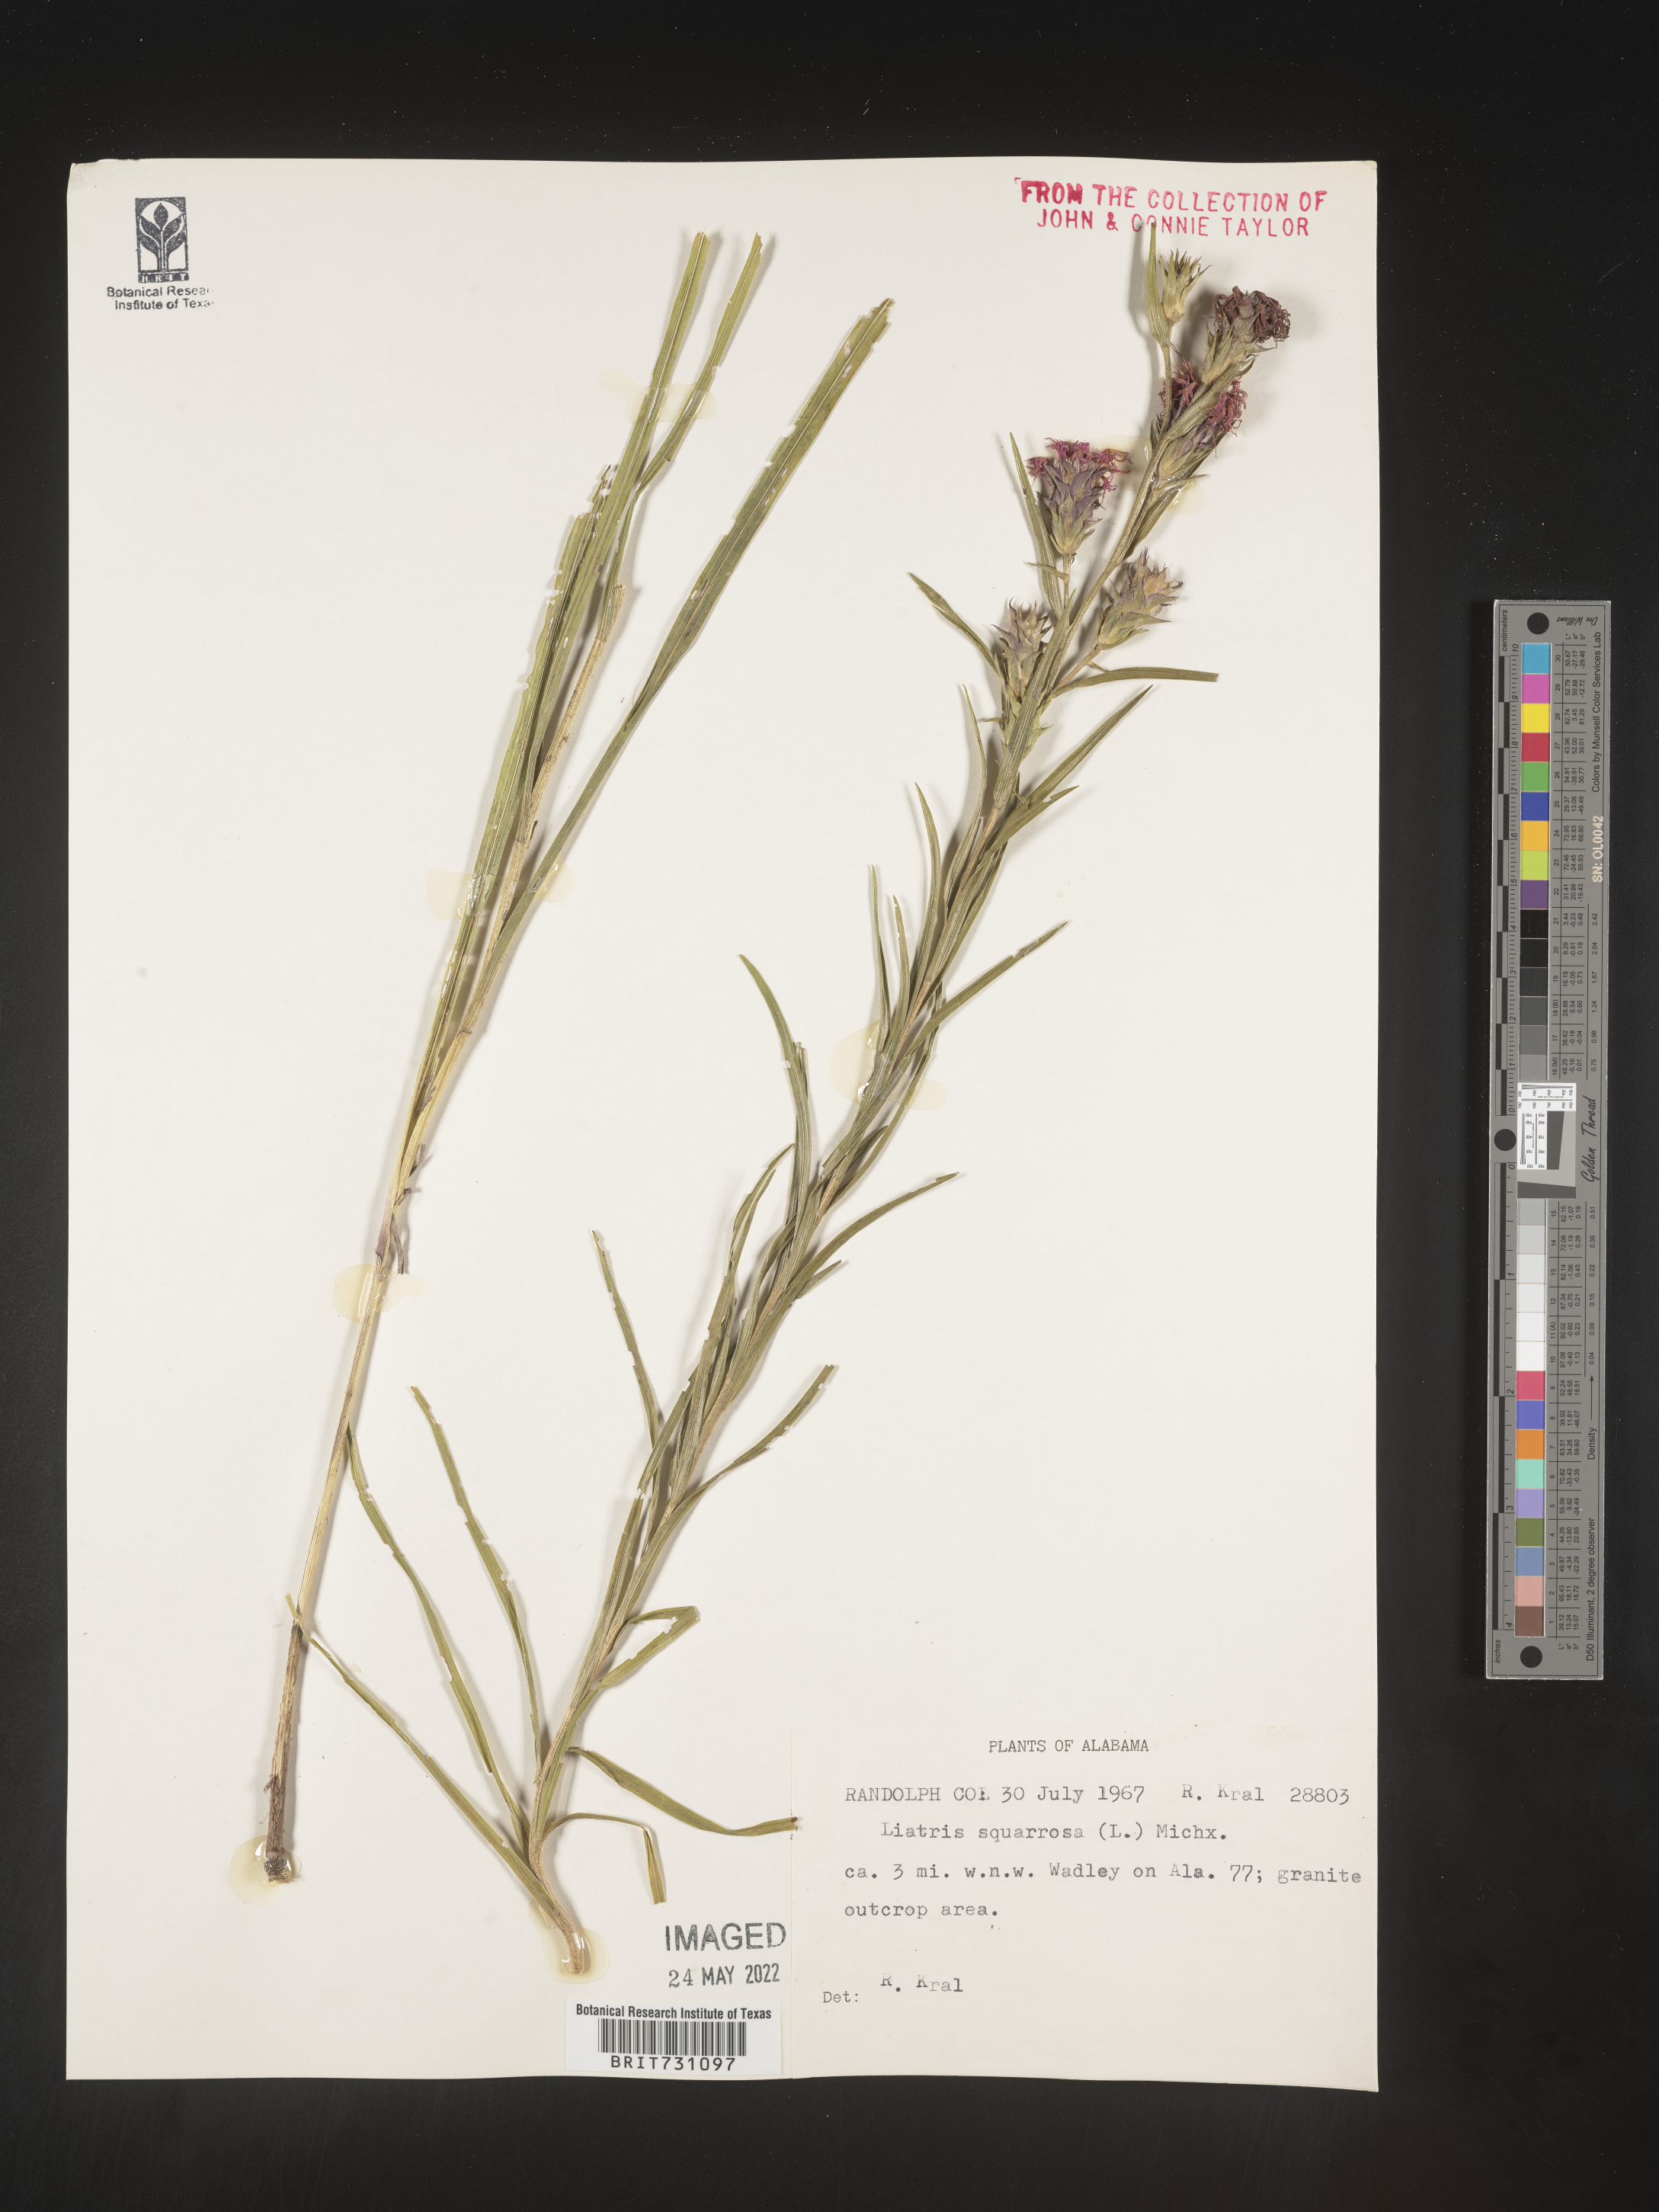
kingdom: Plantae
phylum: Tracheophyta
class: Magnoliopsida
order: Asterales
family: Asteraceae
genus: Liatris
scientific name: Liatris squarrosa
